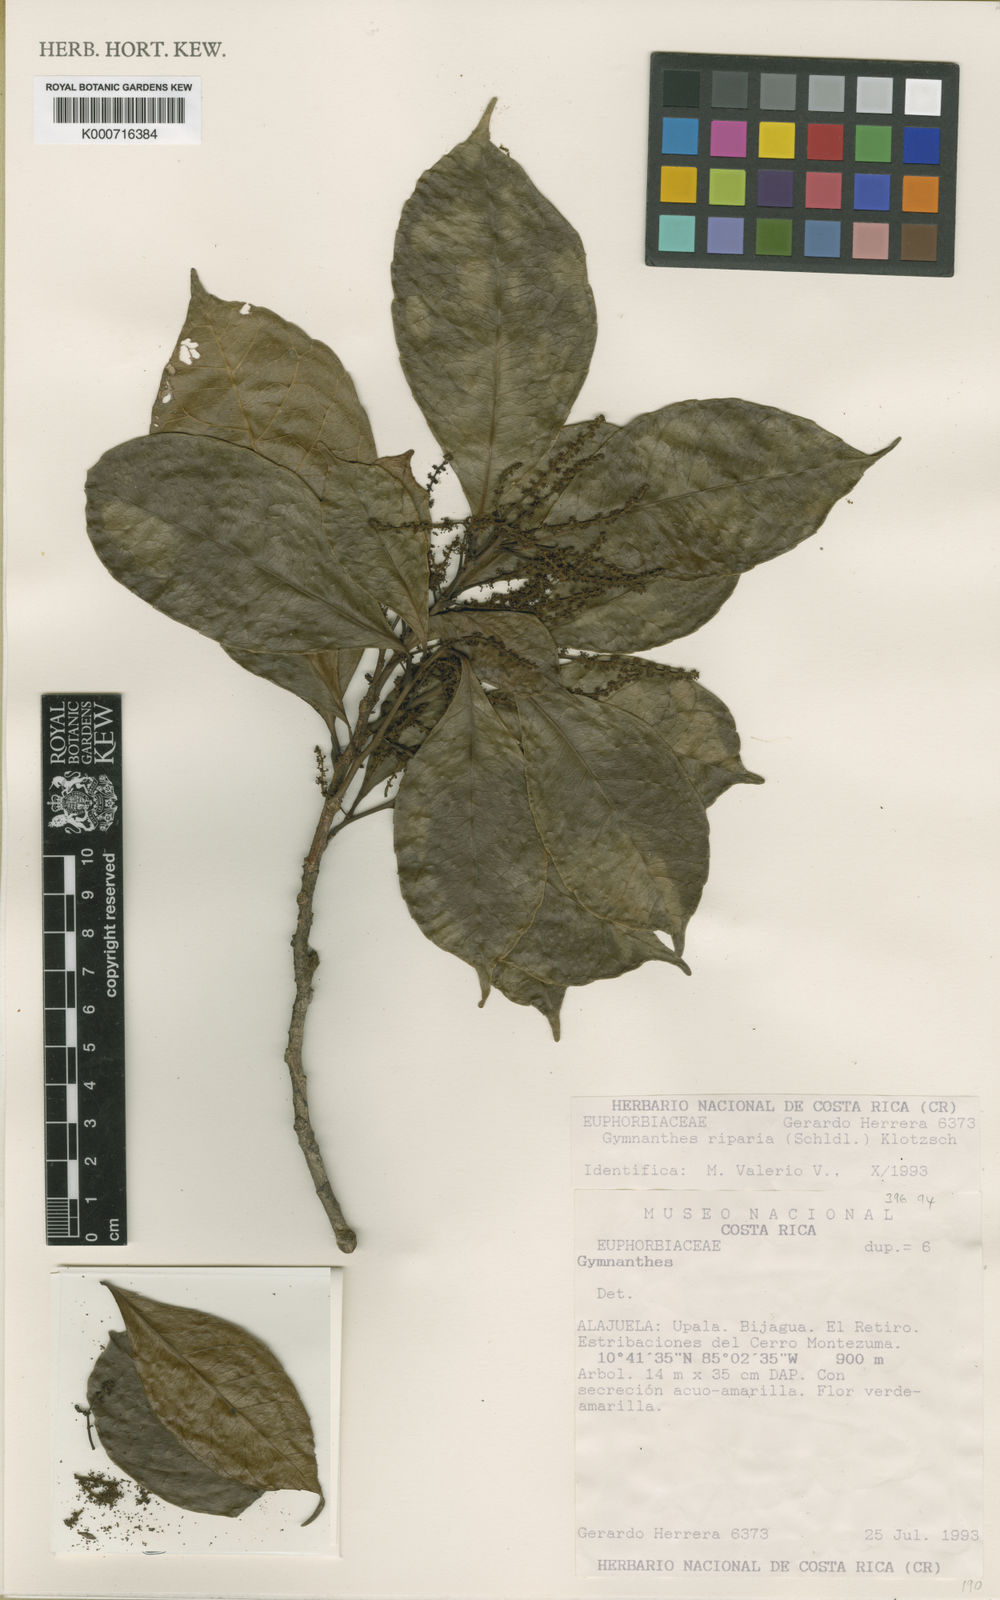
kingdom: Plantae
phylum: Tracheophyta
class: Magnoliopsida
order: Malpighiales
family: Euphorbiaceae
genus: Gymnanthes
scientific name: Gymnanthes riparia
